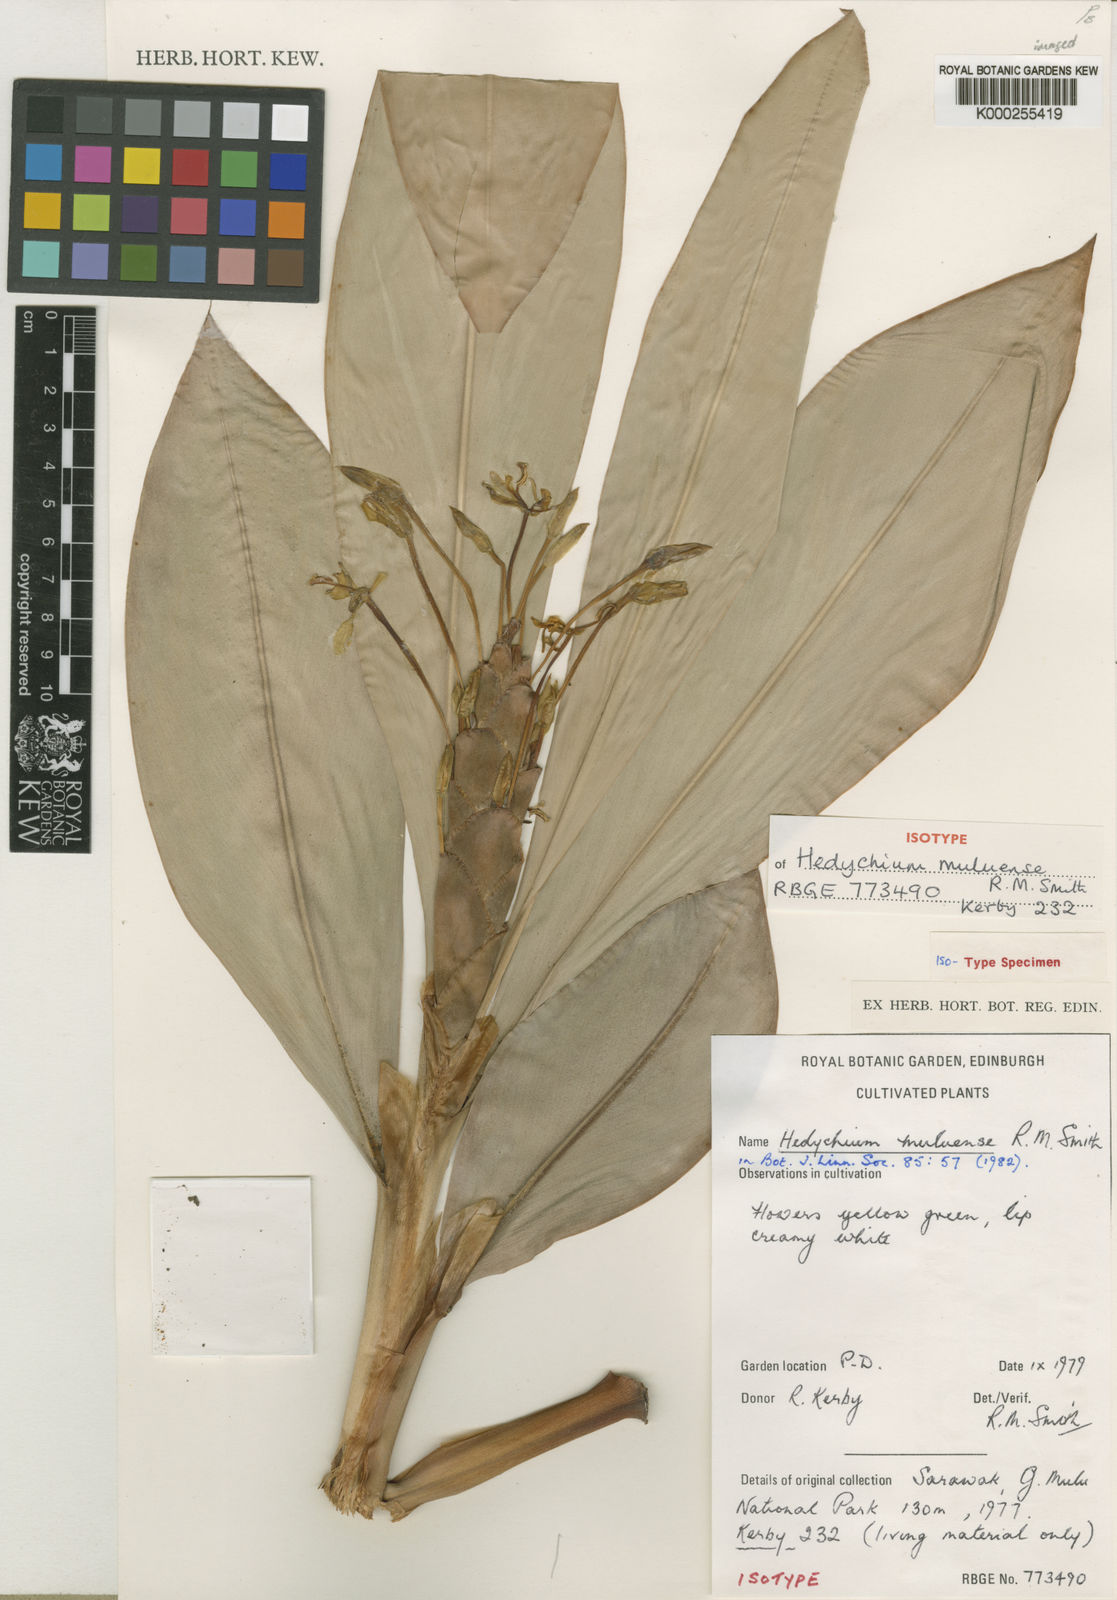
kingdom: Plantae
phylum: Tracheophyta
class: Liliopsida
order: Zingiberales
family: Zingiberaceae
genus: Hedychium
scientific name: Hedychium muluense
